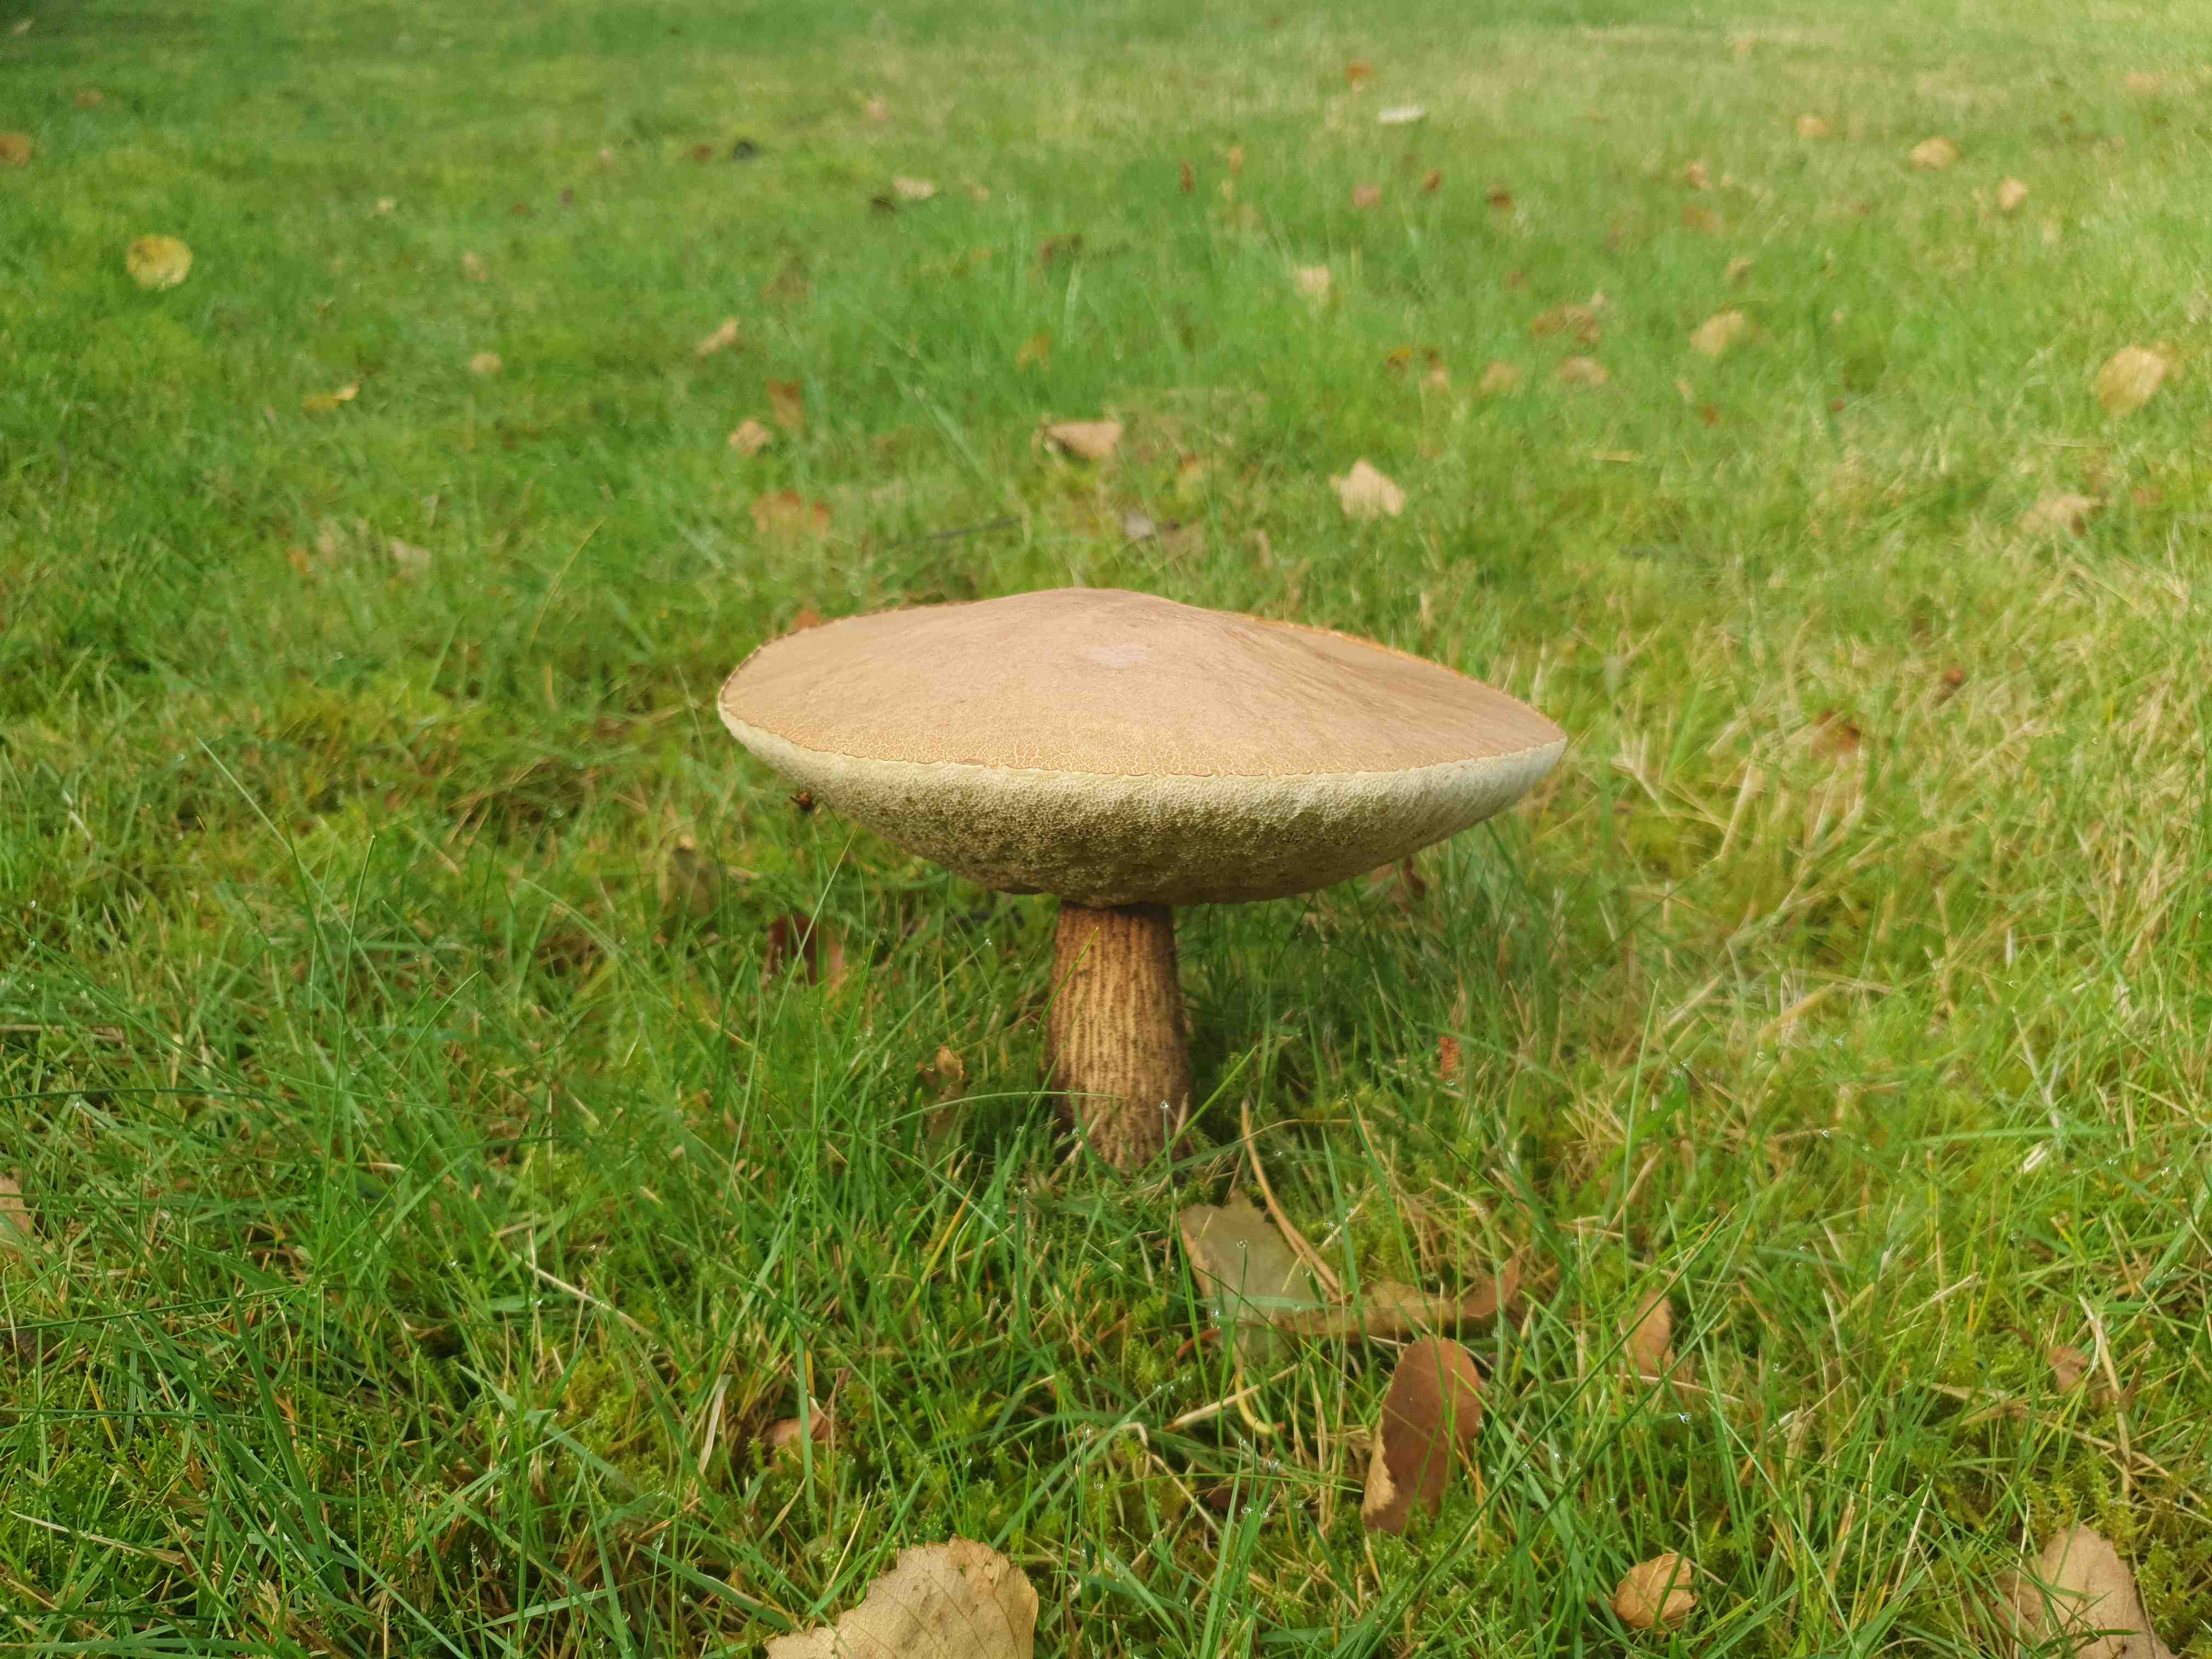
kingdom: Fungi
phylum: Basidiomycota
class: Agaricomycetes
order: Boletales
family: Boletaceae
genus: Leccinum
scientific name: Leccinum
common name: skælrørhat
